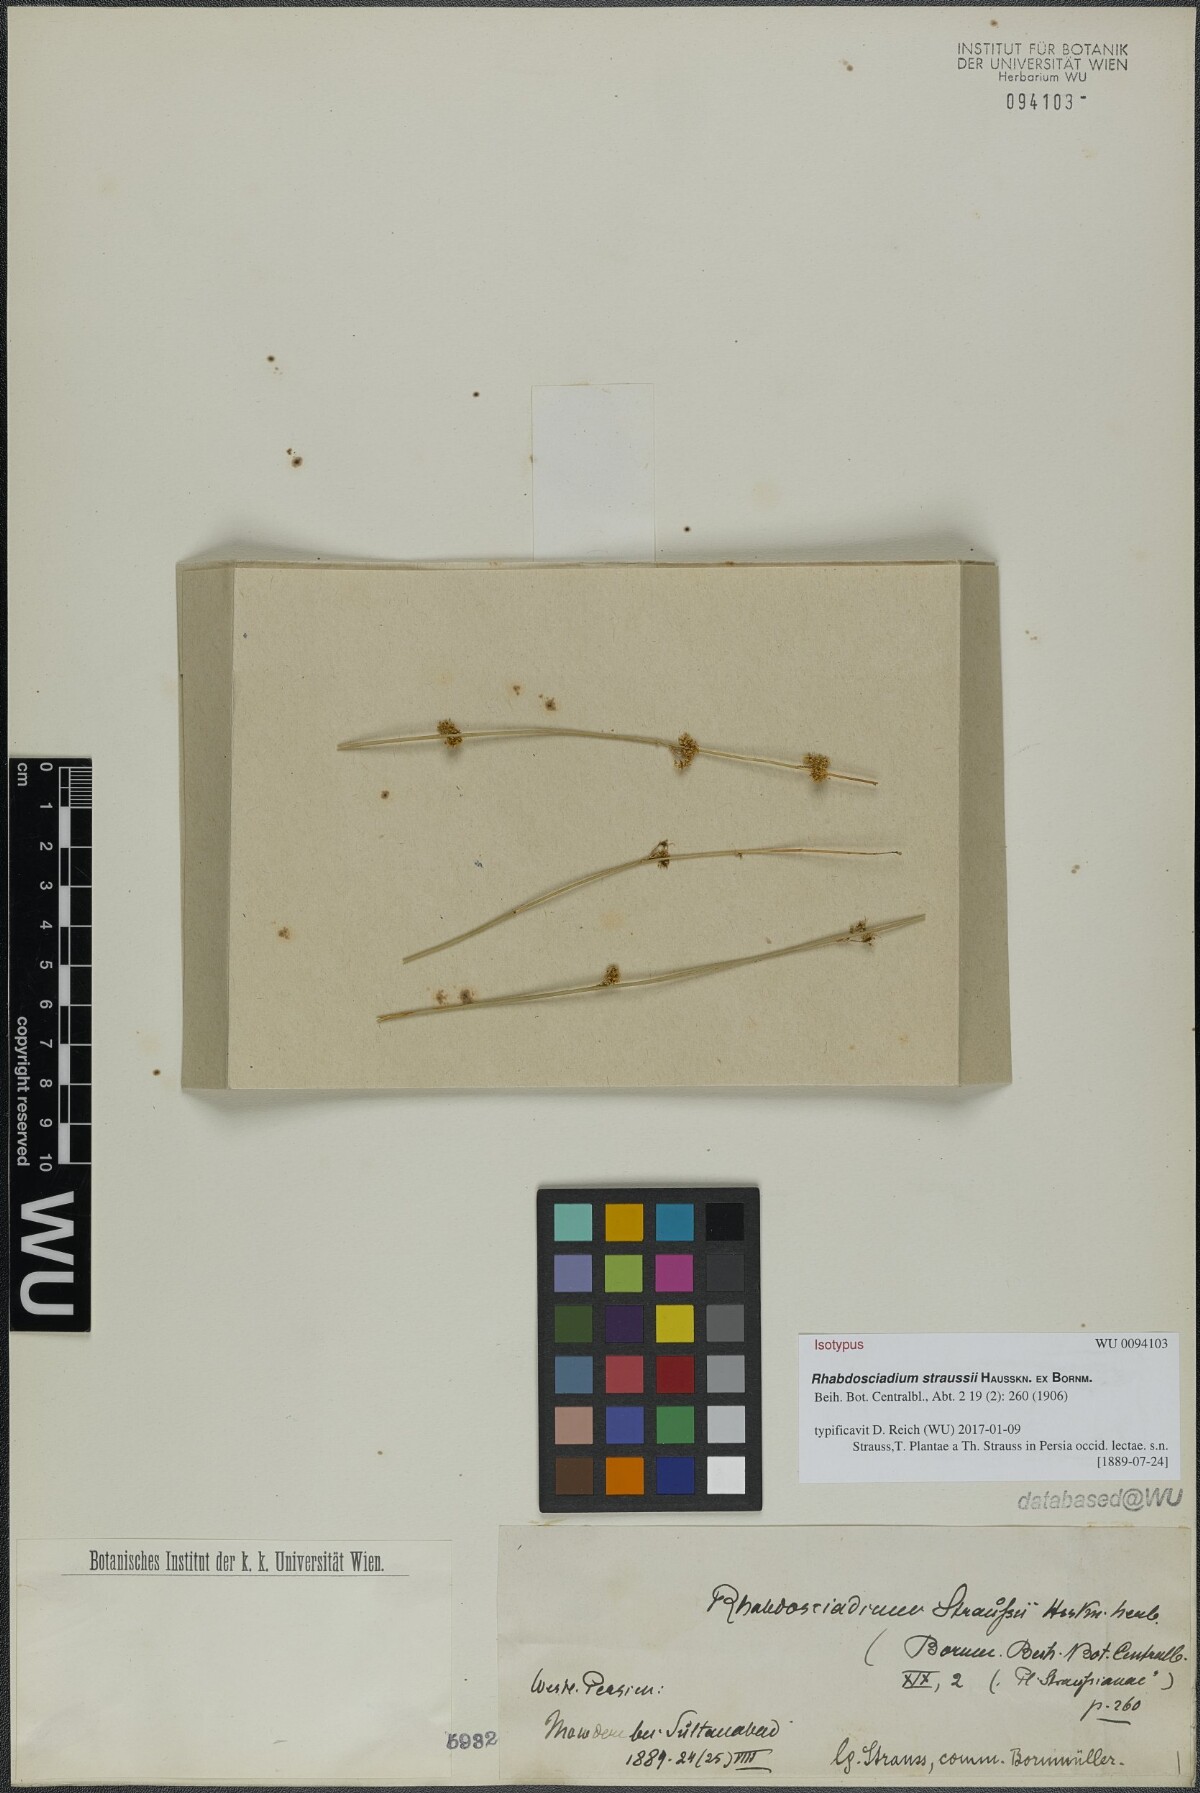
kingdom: Plantae
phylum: Tracheophyta
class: Magnoliopsida
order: Apiales
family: Apiaceae
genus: Rhabdosciadium
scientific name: Rhabdosciadium straussii
